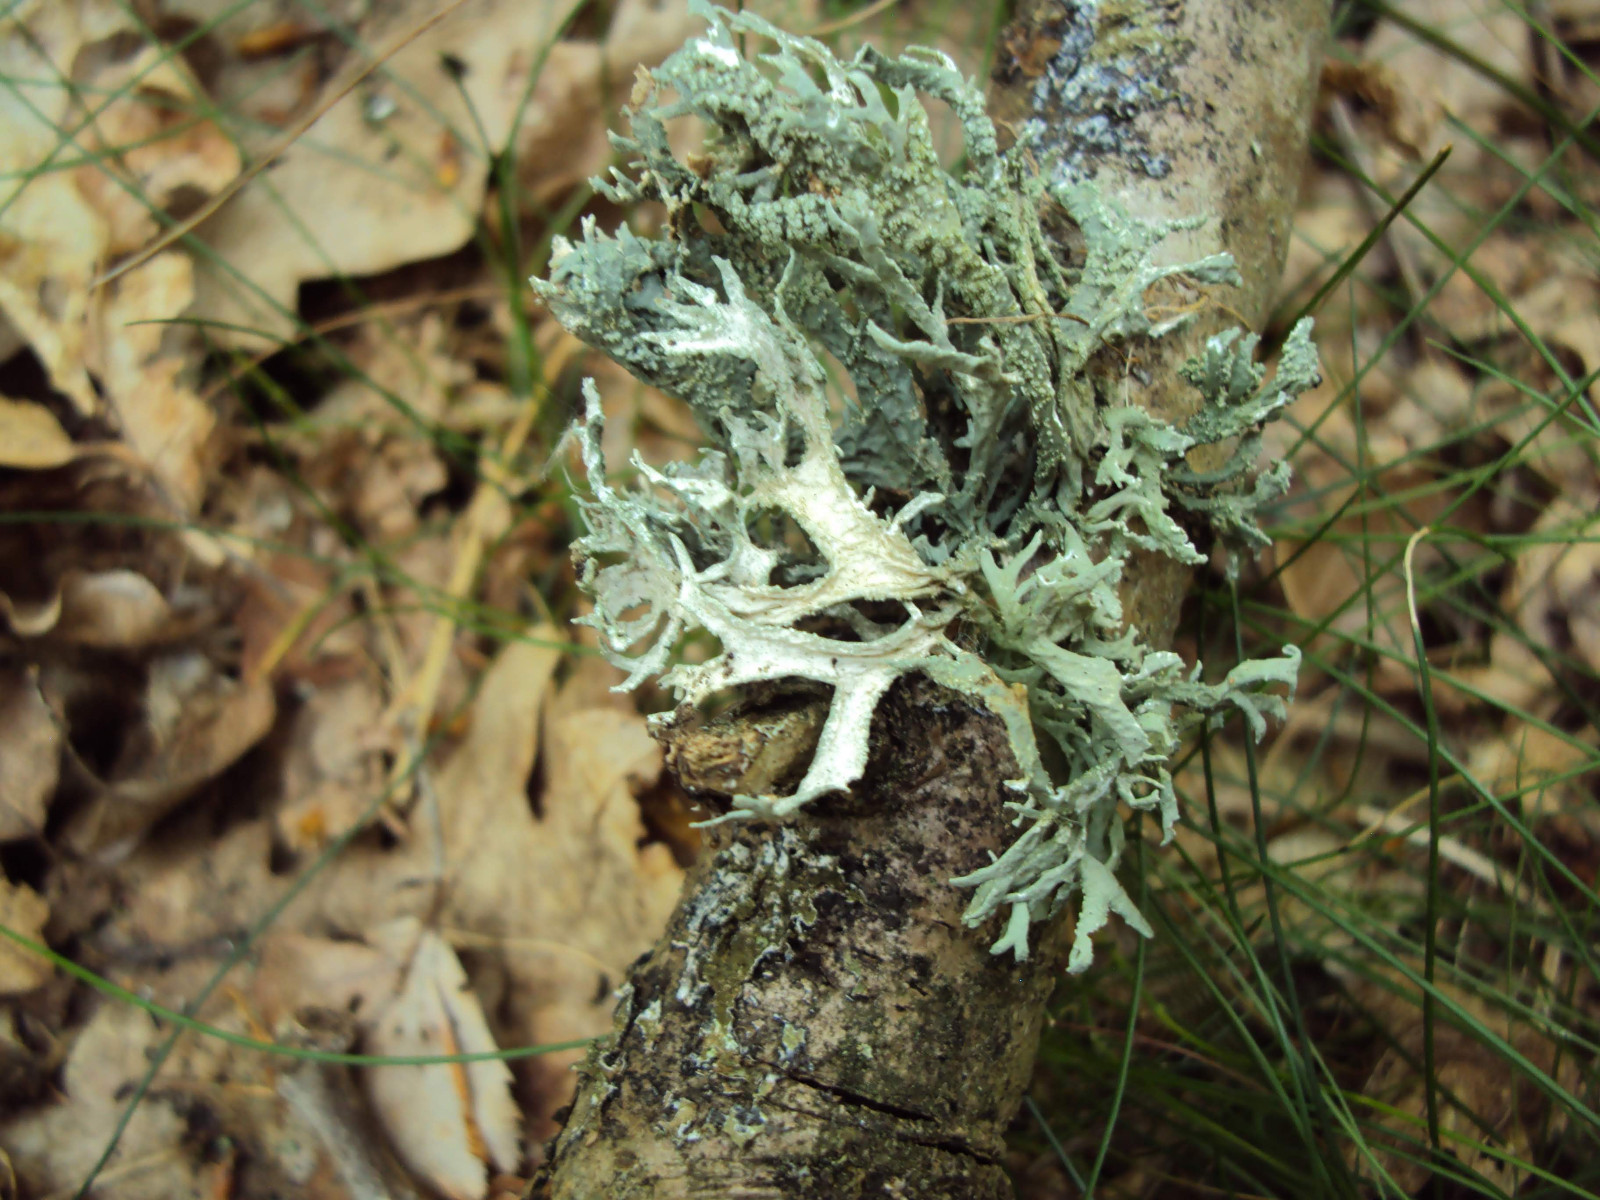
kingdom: Fungi
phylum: Ascomycota
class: Lecanoromycetes
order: Lecanorales
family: Parmeliaceae
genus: Evernia
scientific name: Evernia prunastri
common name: almindelig slåenlav
